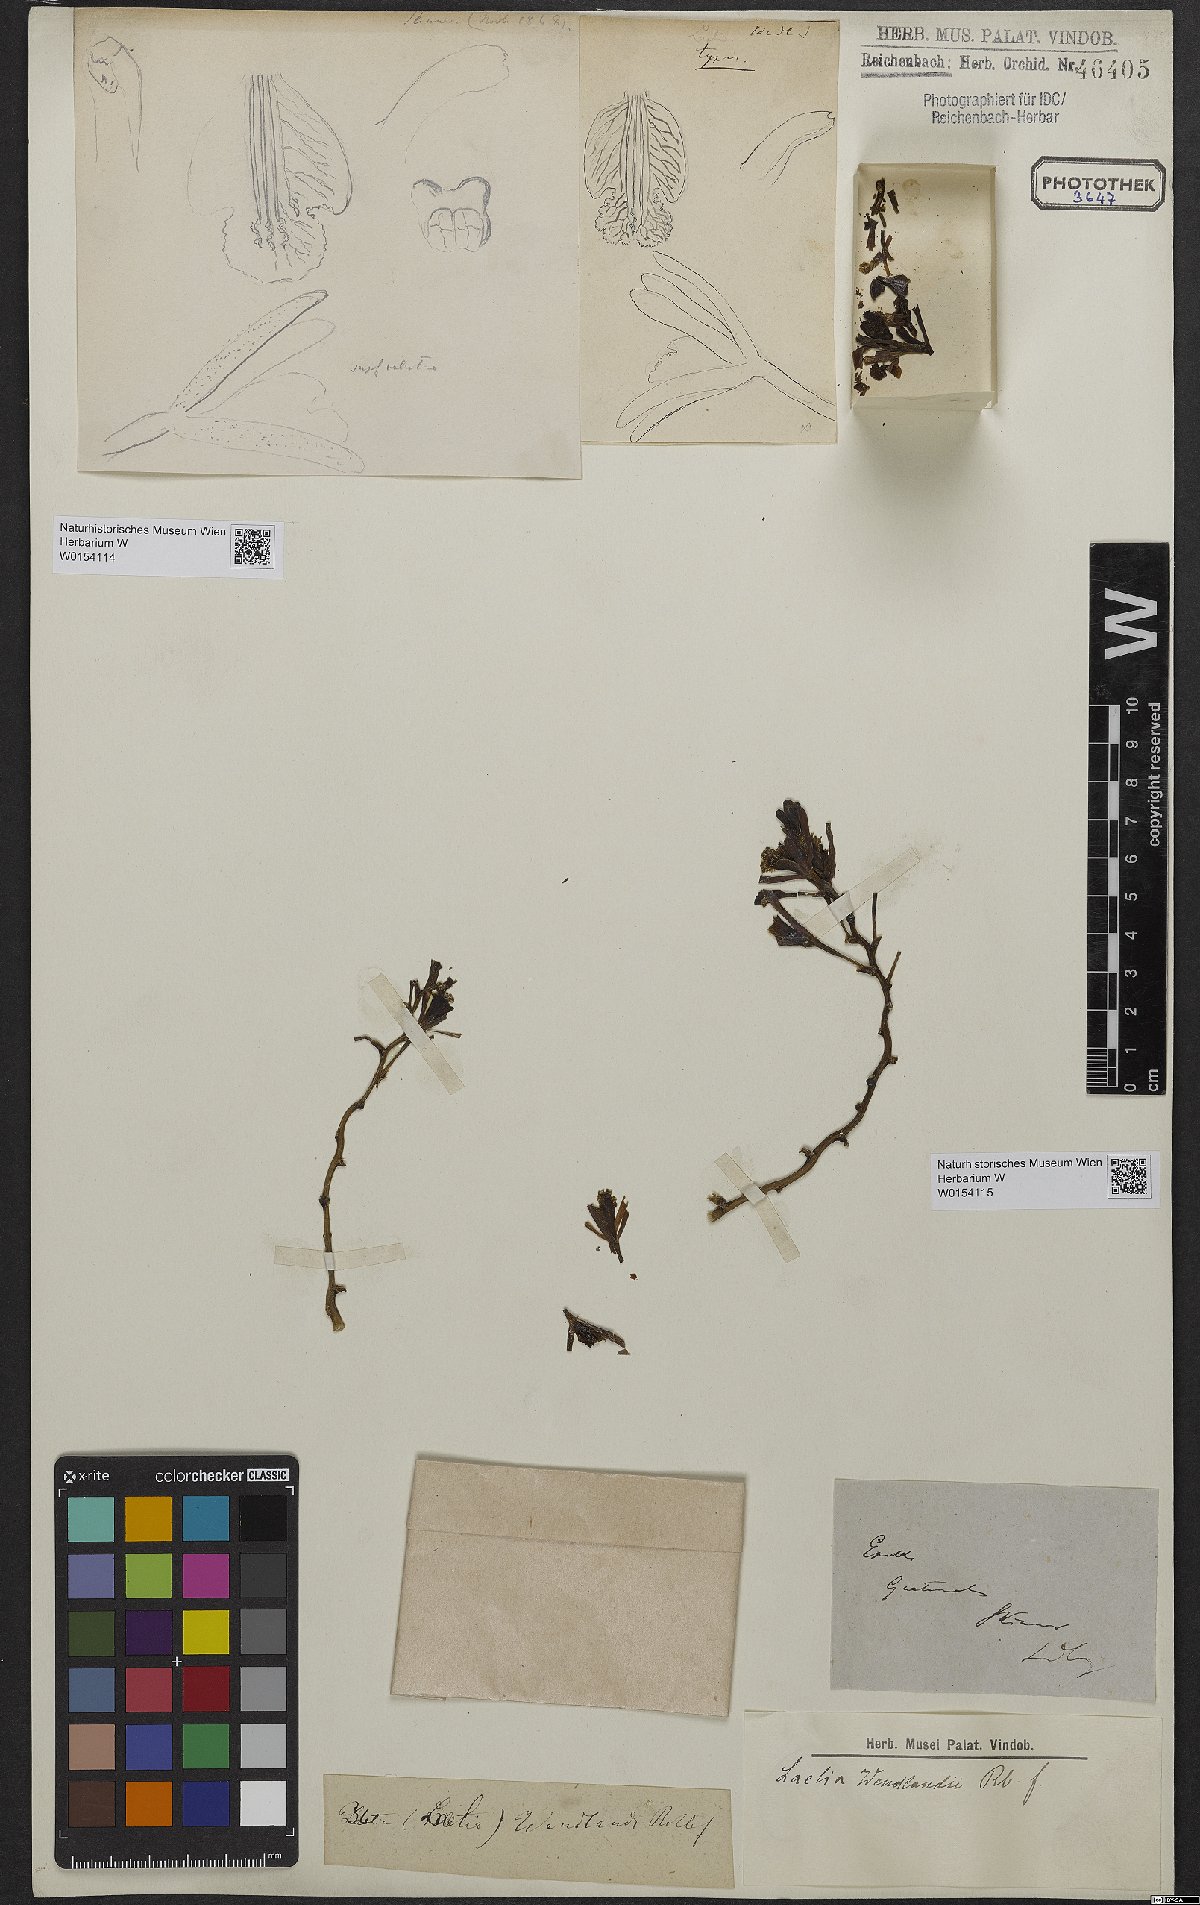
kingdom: Plantae
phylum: Tracheophyta
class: Liliopsida
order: Asparagales
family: Orchidaceae
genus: Myrmecophila
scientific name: Myrmecophila wendlandii
